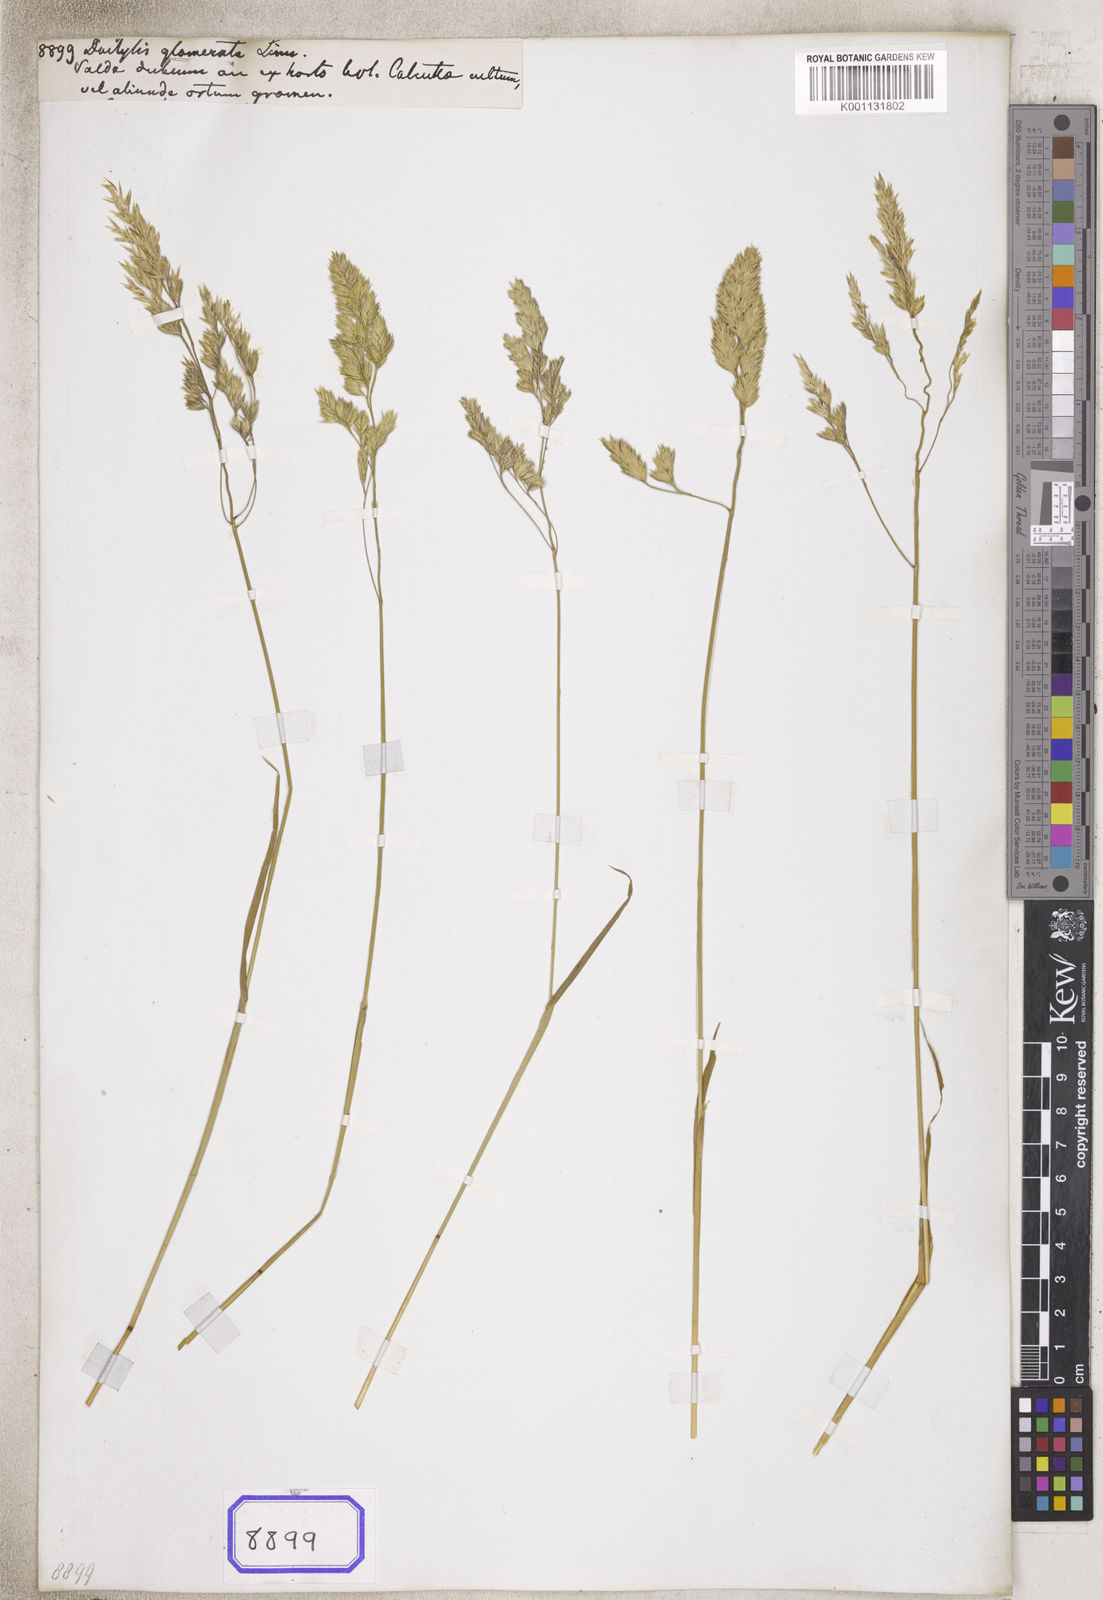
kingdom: Plantae
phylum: Tracheophyta
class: Liliopsida
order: Poales
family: Poaceae
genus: Dactylis
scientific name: Dactylis glomerata
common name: Orchardgrass
